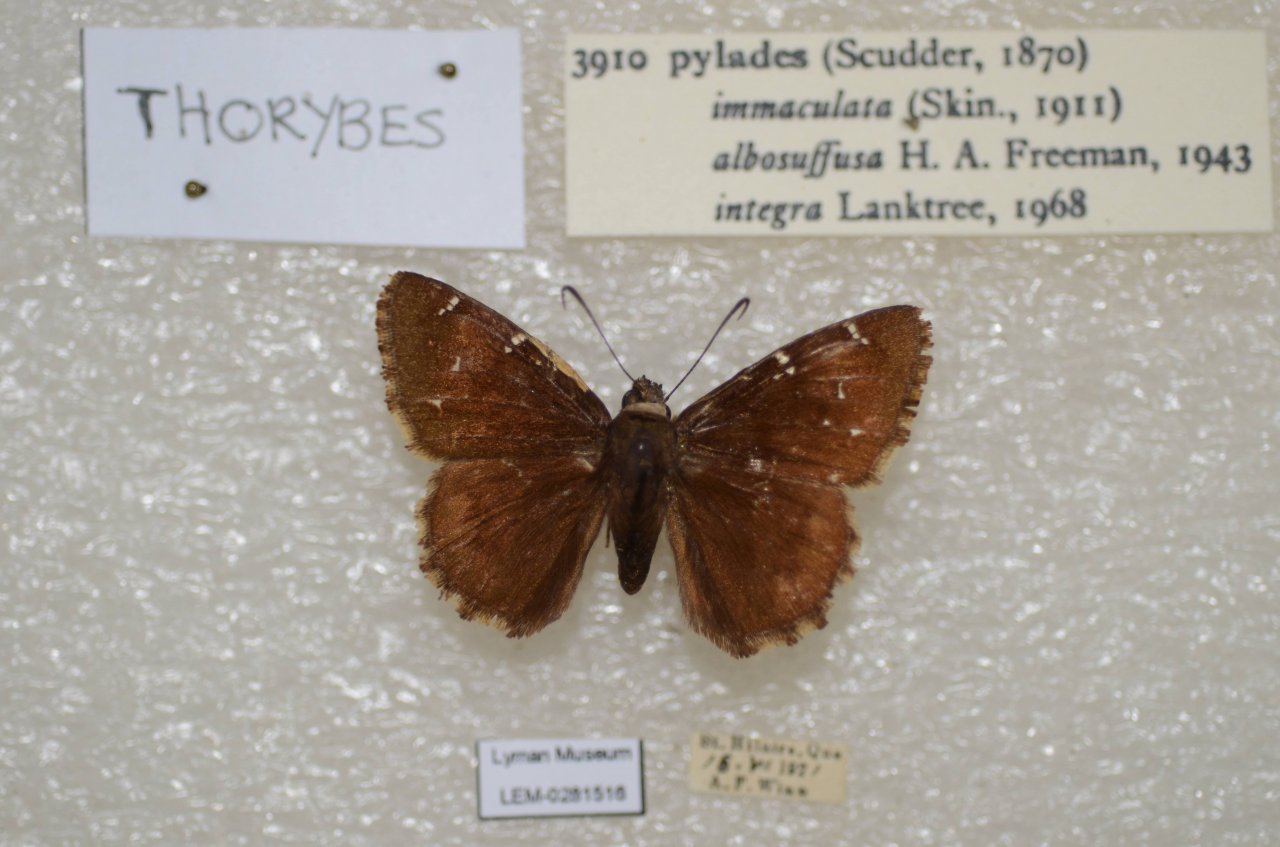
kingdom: Animalia
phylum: Arthropoda
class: Insecta
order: Lepidoptera
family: Hesperiidae
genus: Autochton
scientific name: Autochton
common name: Northern Cloudywing
